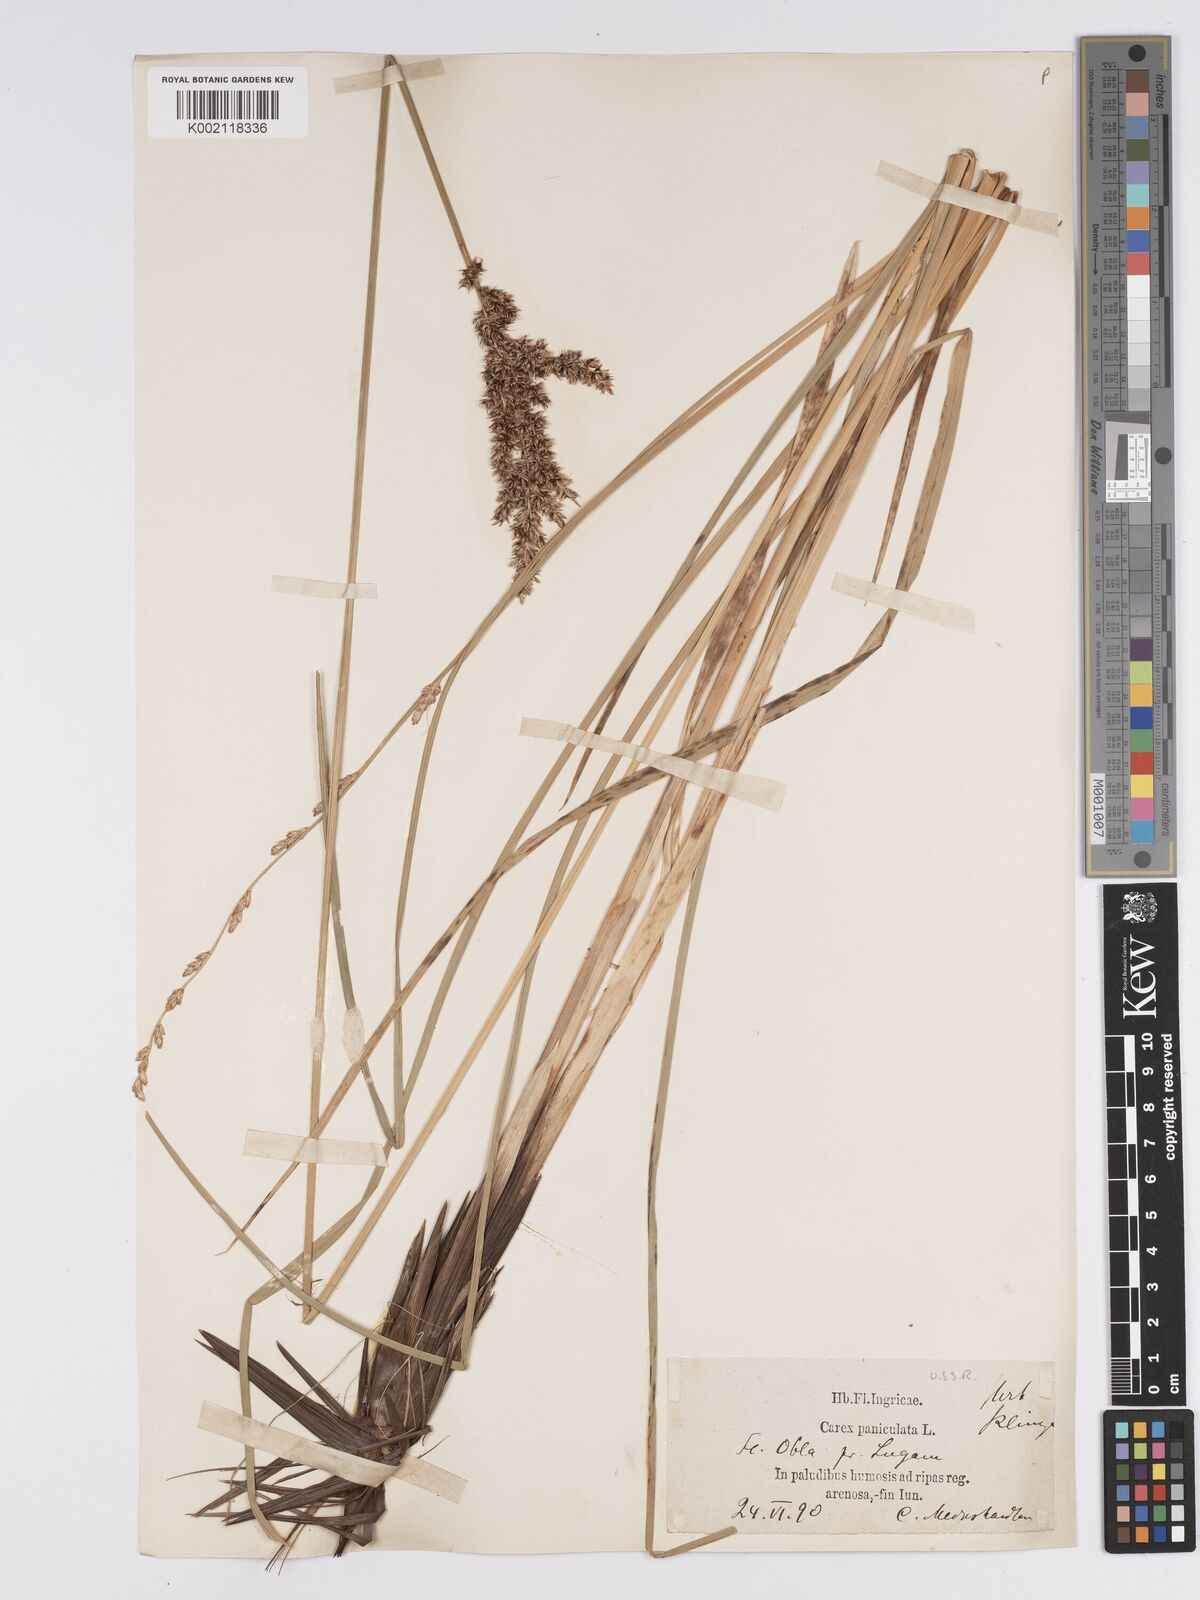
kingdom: Plantae
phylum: Tracheophyta
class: Liliopsida
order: Poales
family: Cyperaceae
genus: Carex
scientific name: Carex paniculata
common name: Greater tussock-sedge
